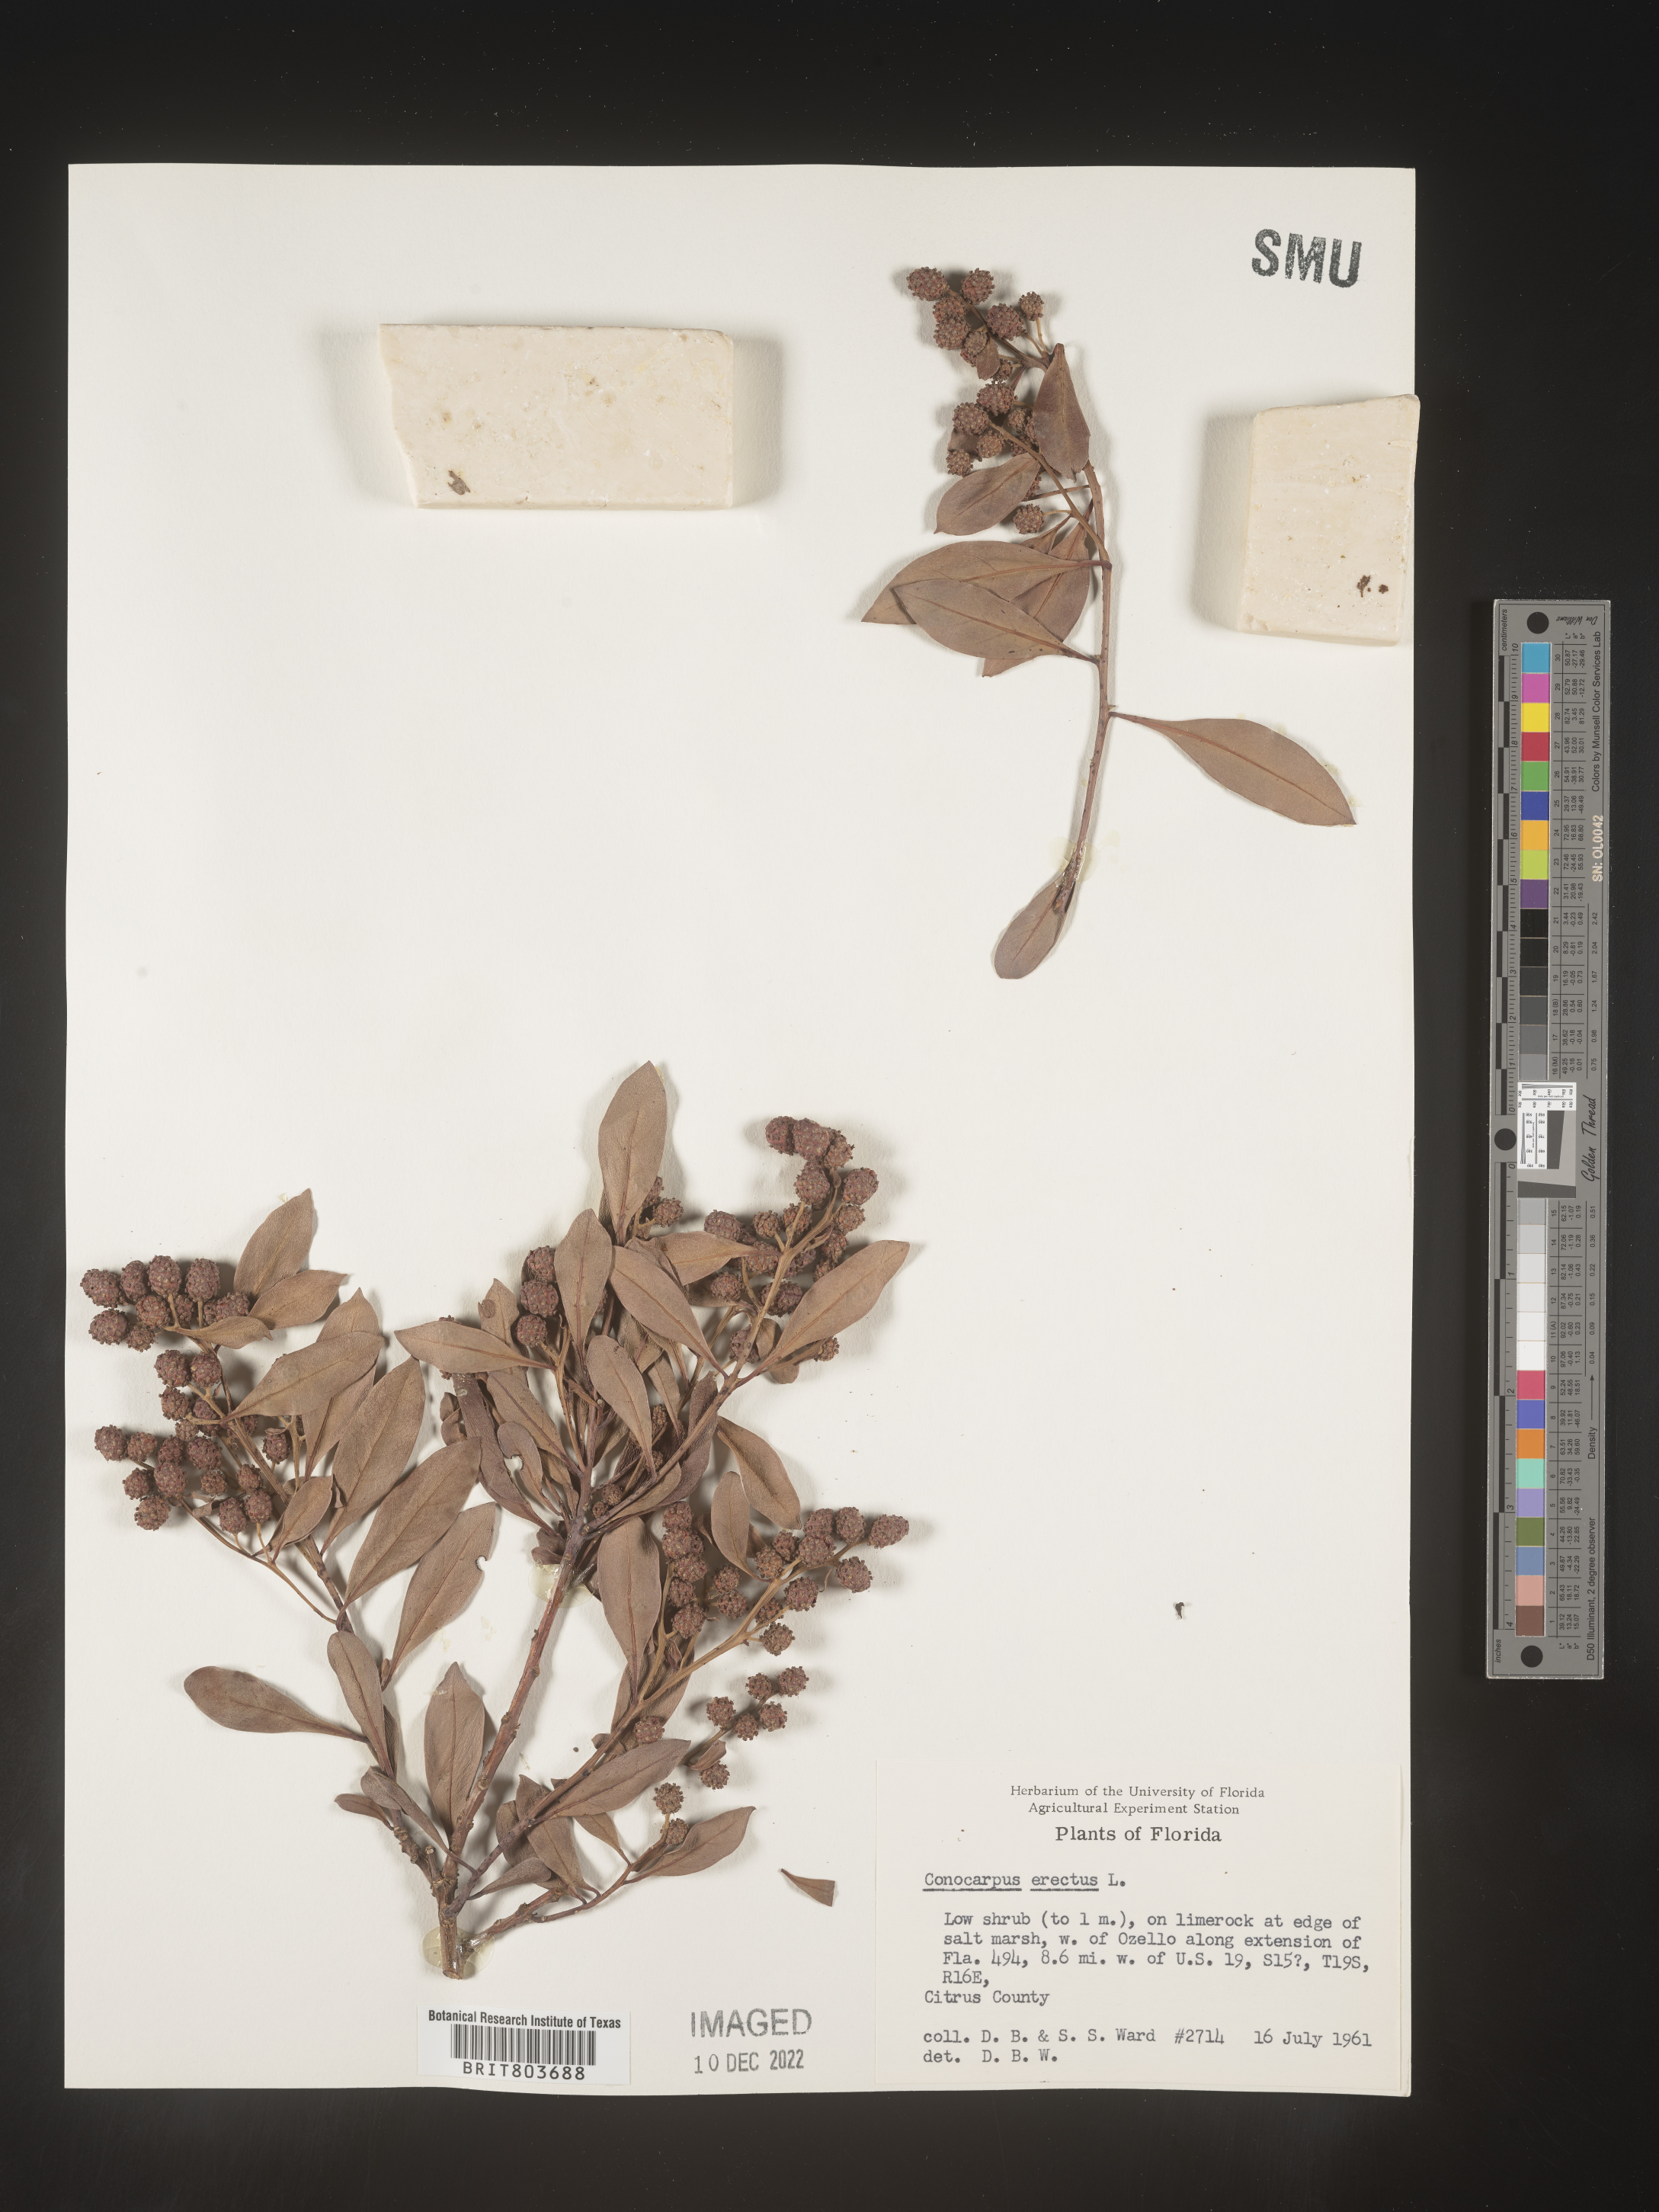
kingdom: Plantae
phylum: Tracheophyta
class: Magnoliopsida
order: Myrtales
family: Combretaceae
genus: Conocarpus
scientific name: Conocarpus erectus
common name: Button mangrove
